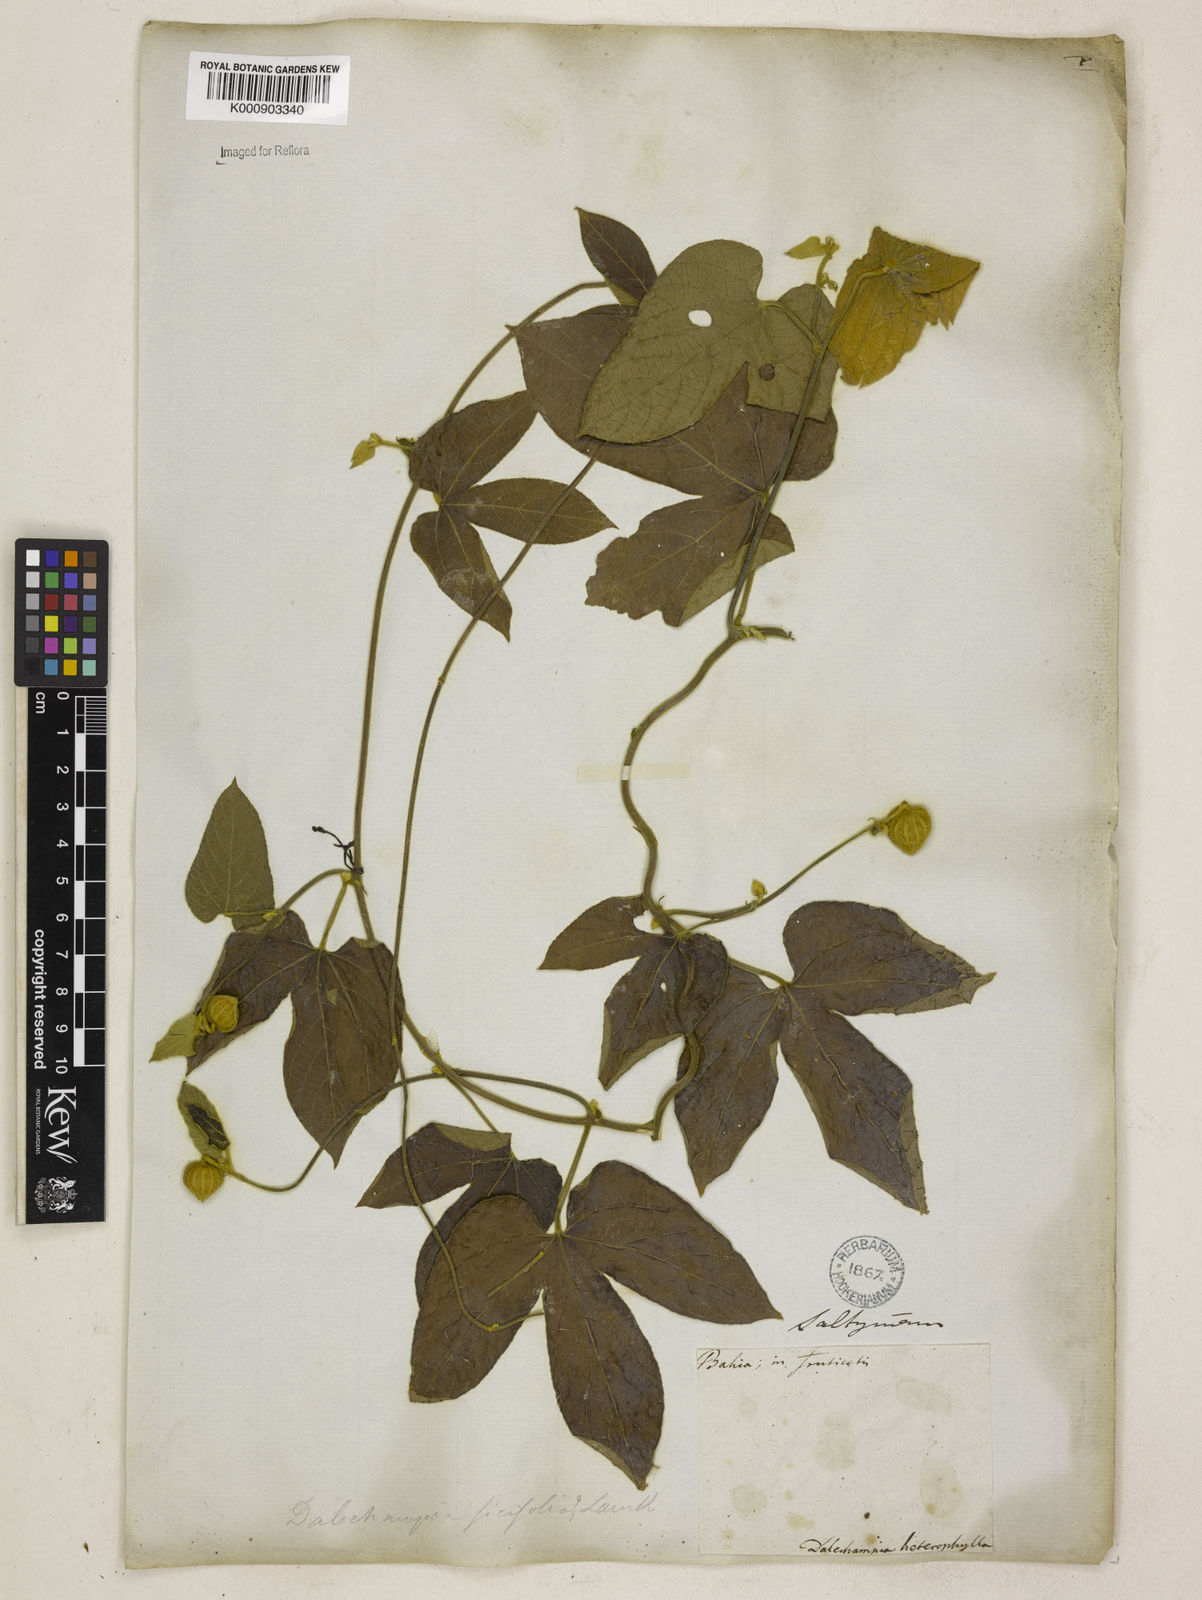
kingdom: Plantae
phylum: Tracheophyta
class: Magnoliopsida
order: Malpighiales
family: Euphorbiaceae
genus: Dalechampia
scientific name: Dalechampia tiliifolia
